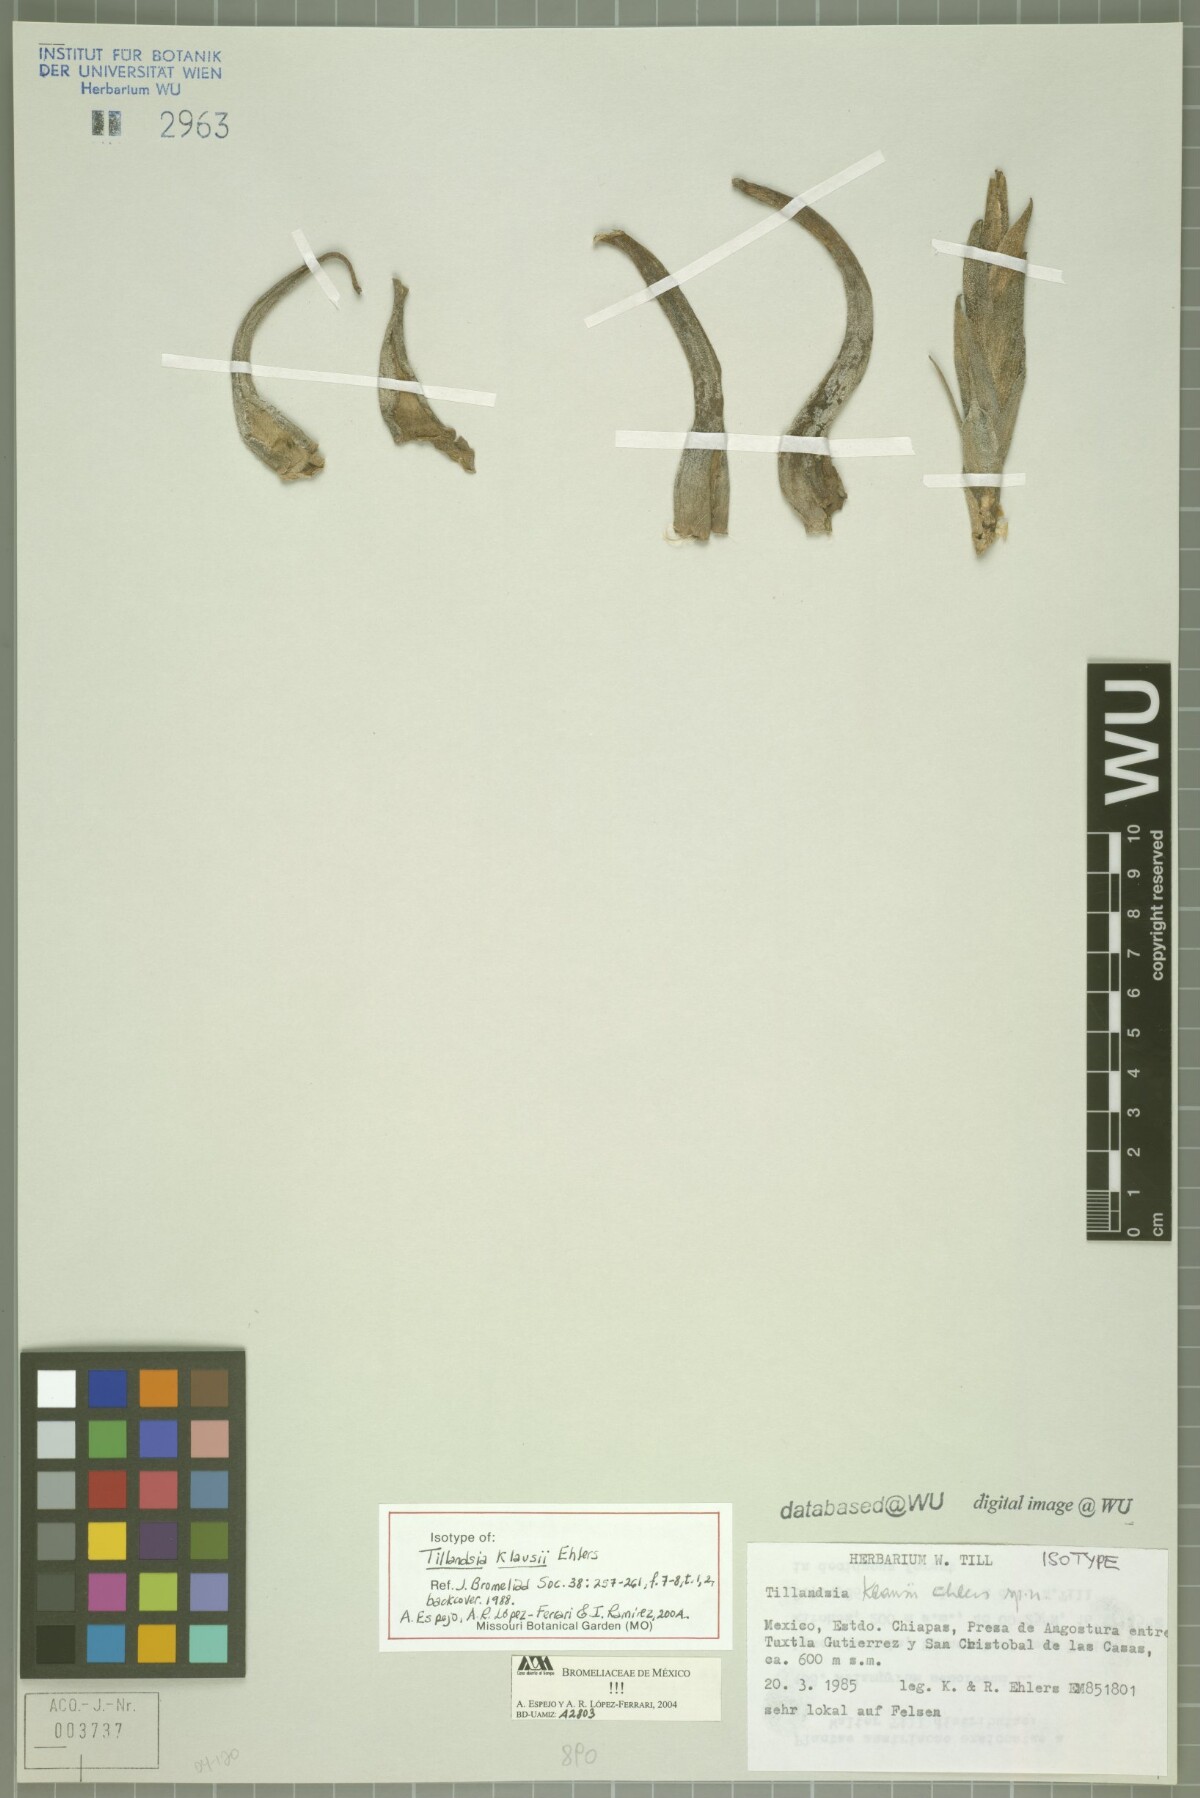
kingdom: Plantae
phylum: Tracheophyta
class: Liliopsida
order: Poales
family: Bromeliaceae
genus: Tillandsia
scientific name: Tillandsia klausii
